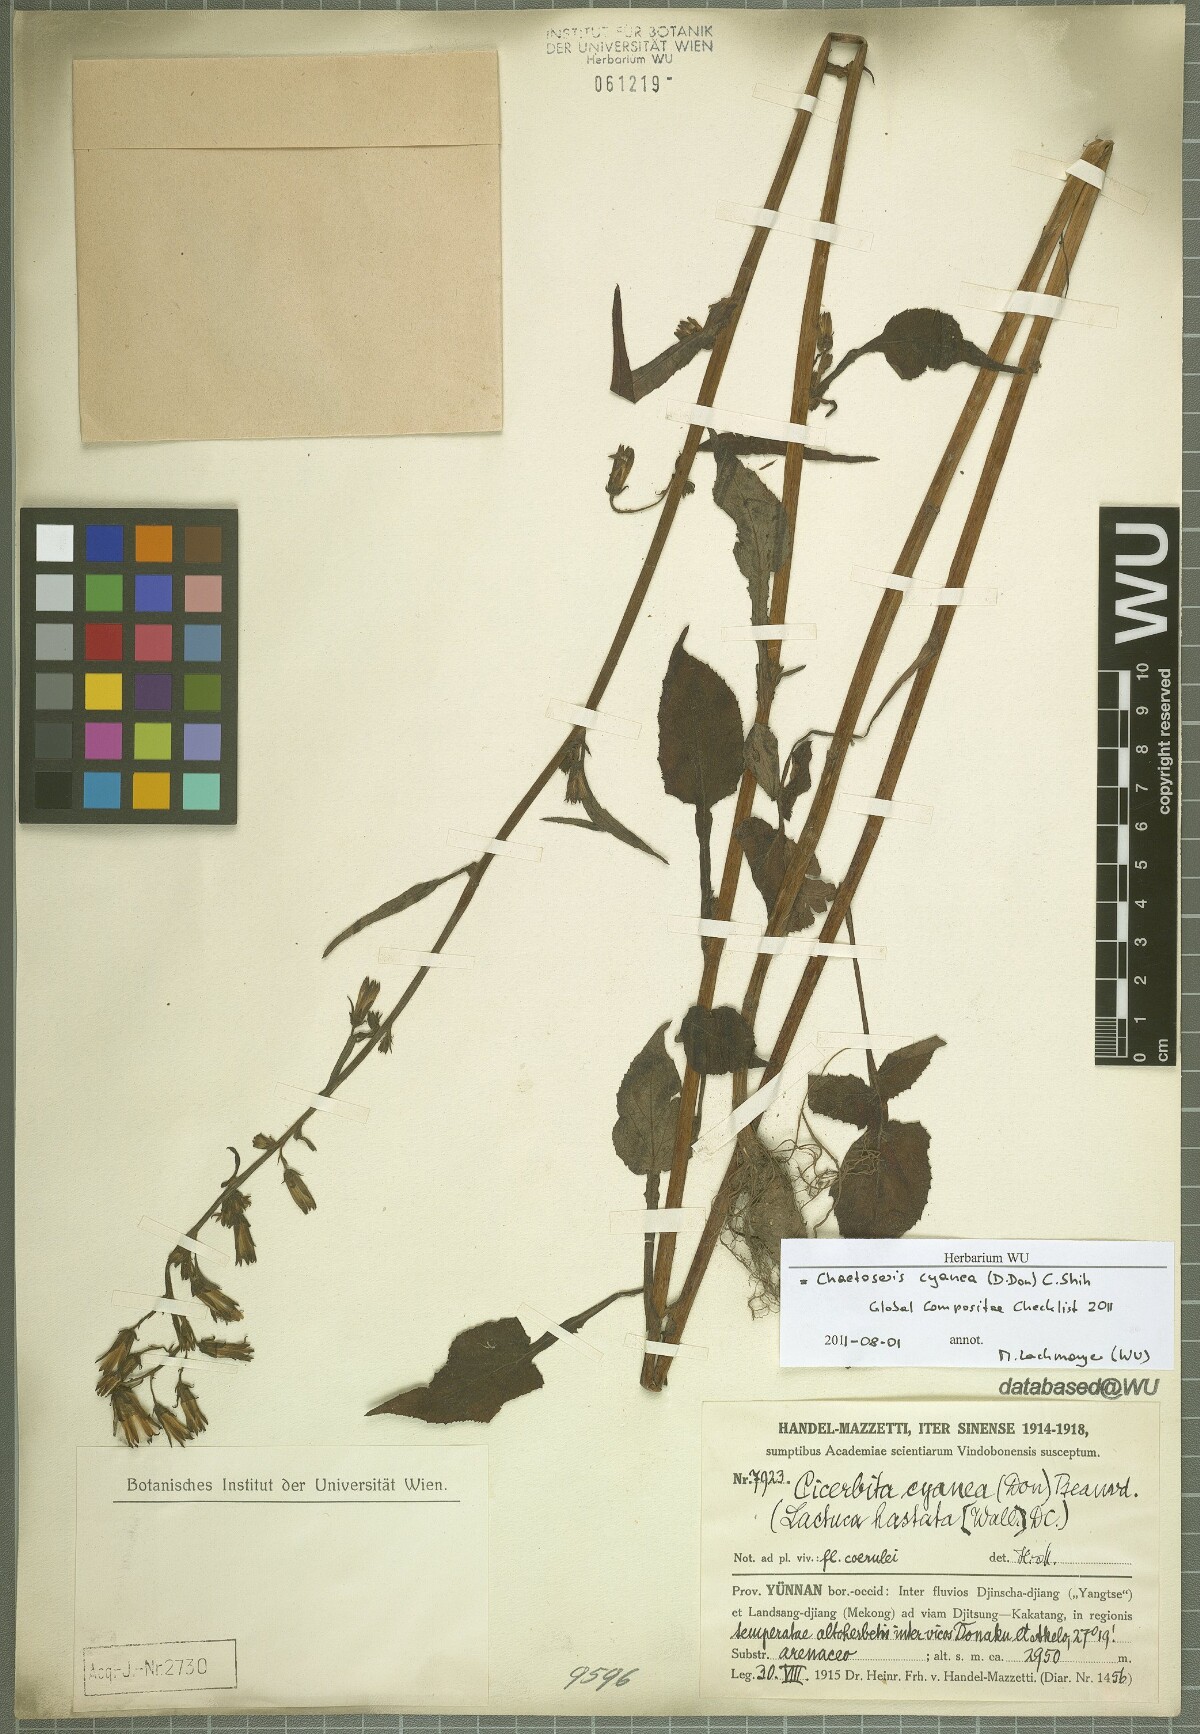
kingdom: Plantae
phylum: Tracheophyta
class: Magnoliopsida
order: Asterales
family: Asteraceae
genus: Melanoseris
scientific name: Melanoseris cyanea
